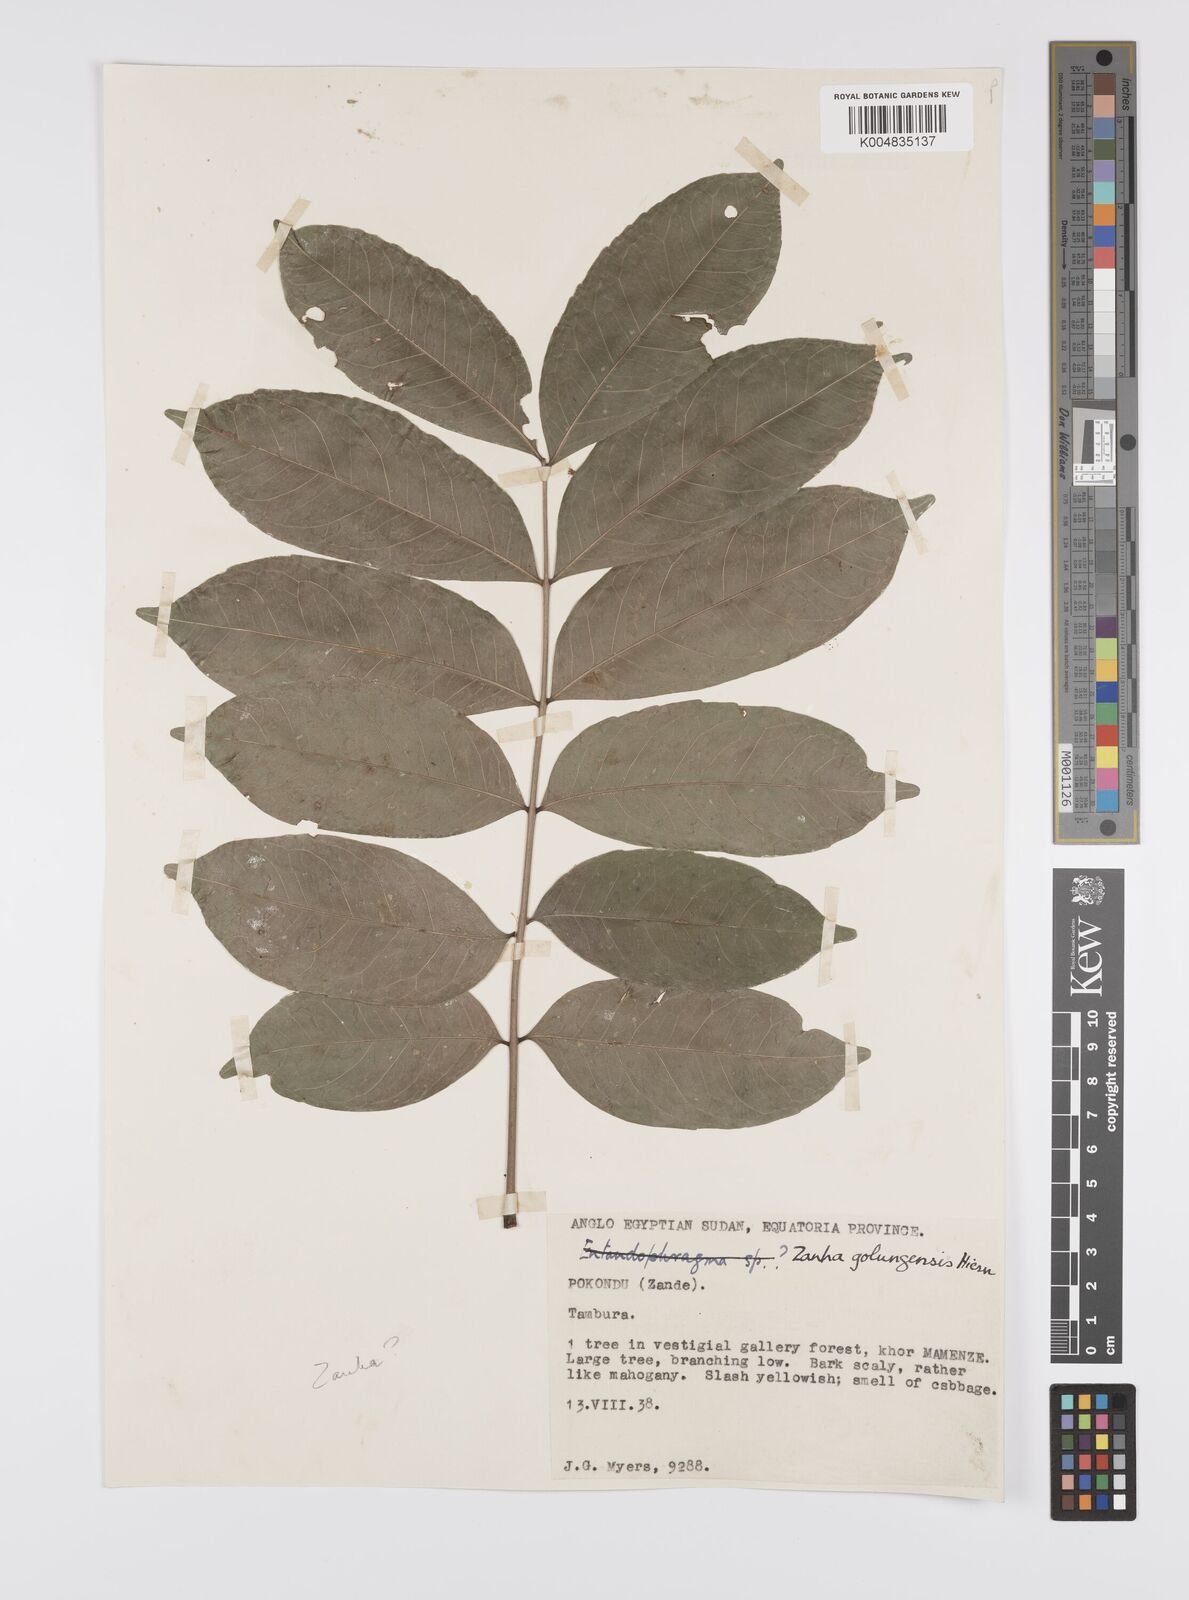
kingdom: Plantae
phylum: Tracheophyta
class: Magnoliopsida
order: Sapindales
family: Sapindaceae
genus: Zanha
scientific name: Zanha golungensis
